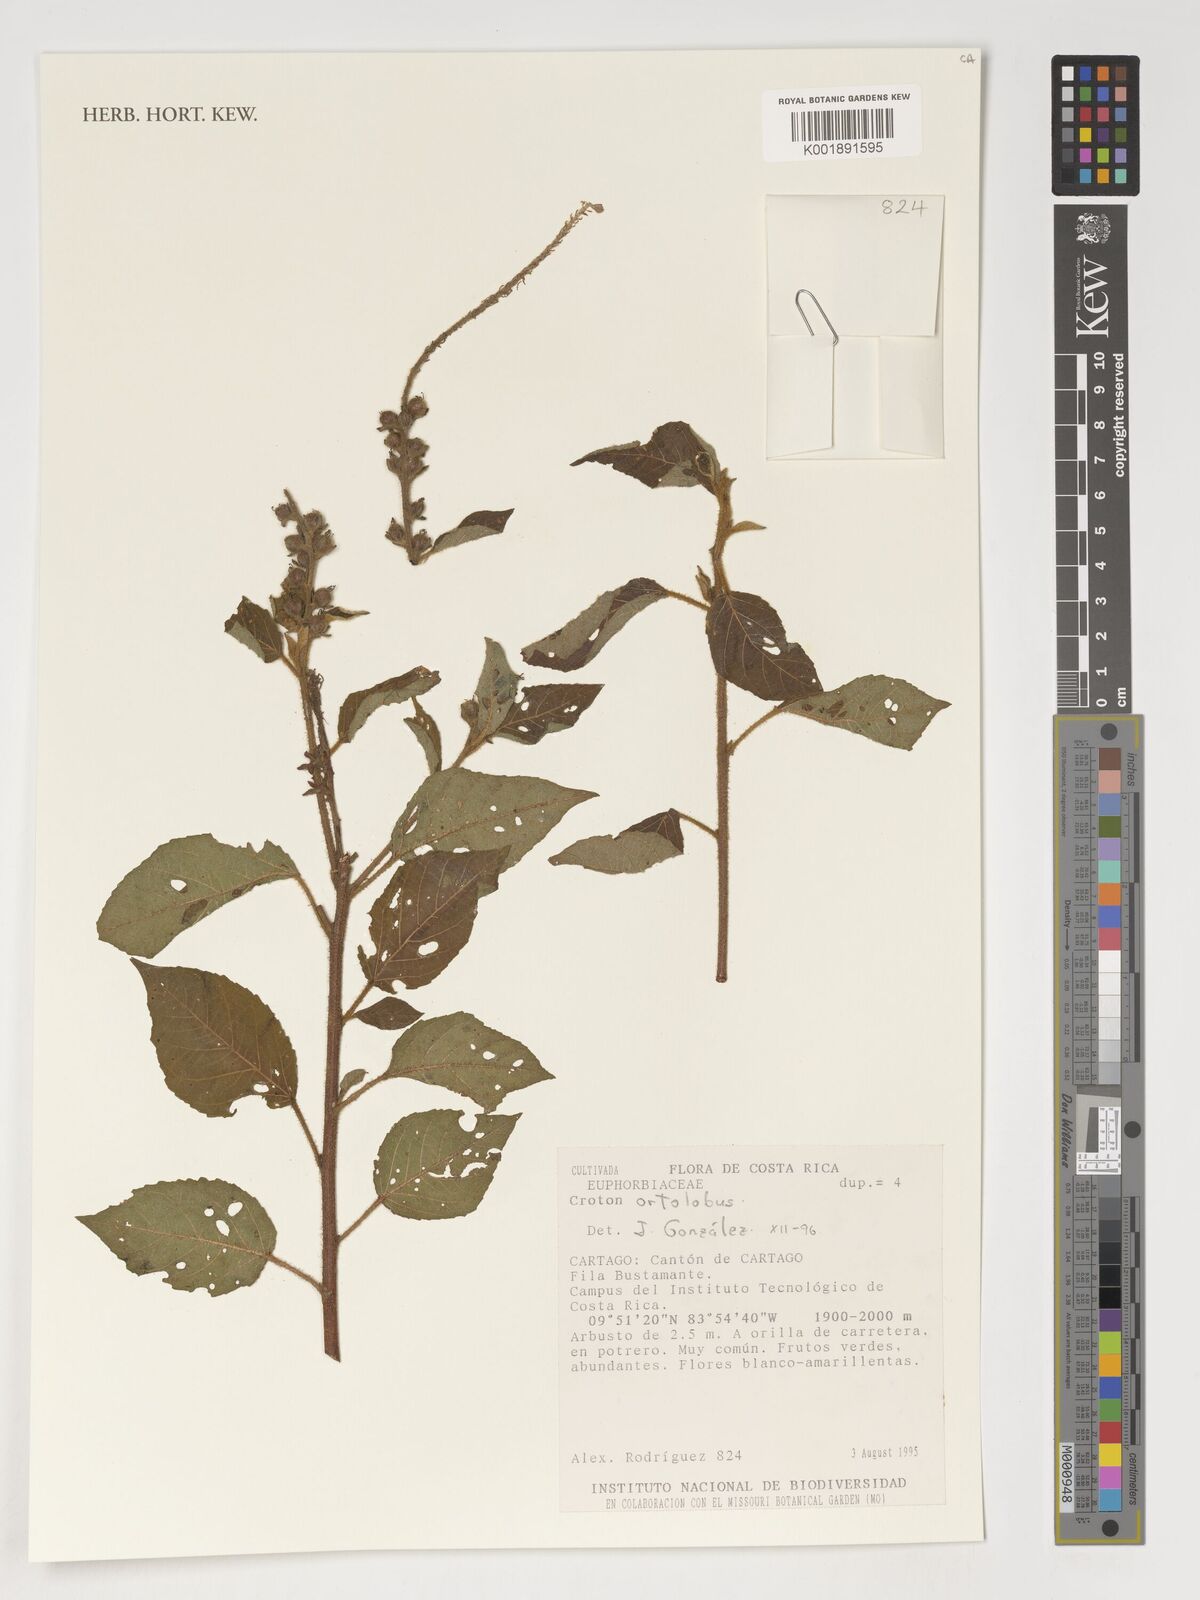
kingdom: Plantae
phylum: Tracheophyta
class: Magnoliopsida
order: Malpighiales
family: Euphorbiaceae
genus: Croton
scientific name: Croton ortholobus
